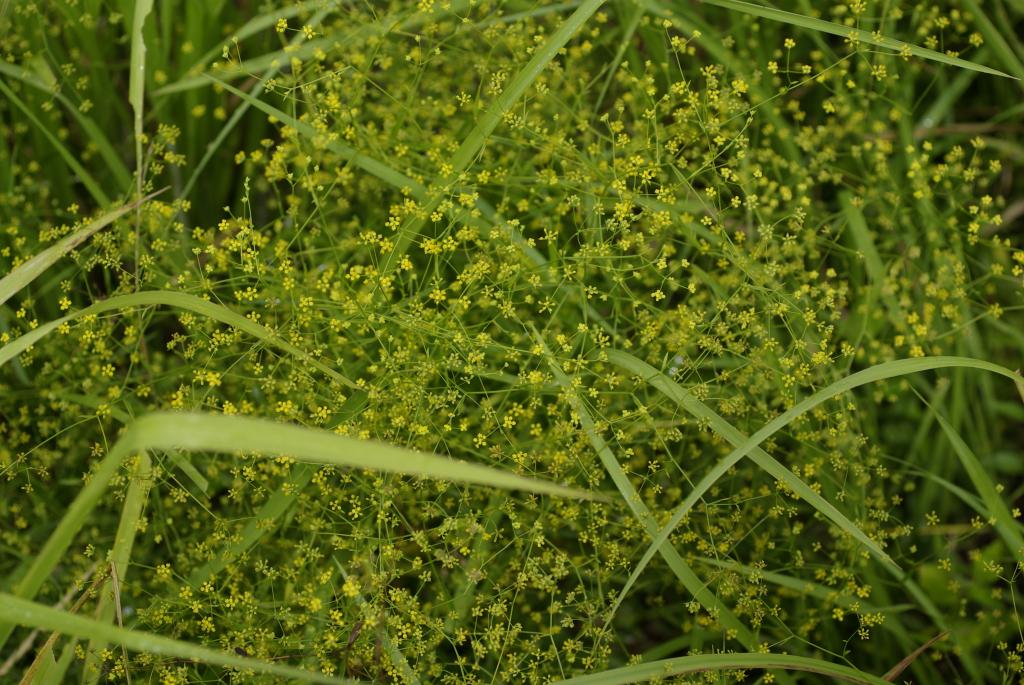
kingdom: Plantae
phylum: Tracheophyta
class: Magnoliopsida
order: Apiales
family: Apiaceae
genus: Bupleurum
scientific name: Bupleurum kaoi
